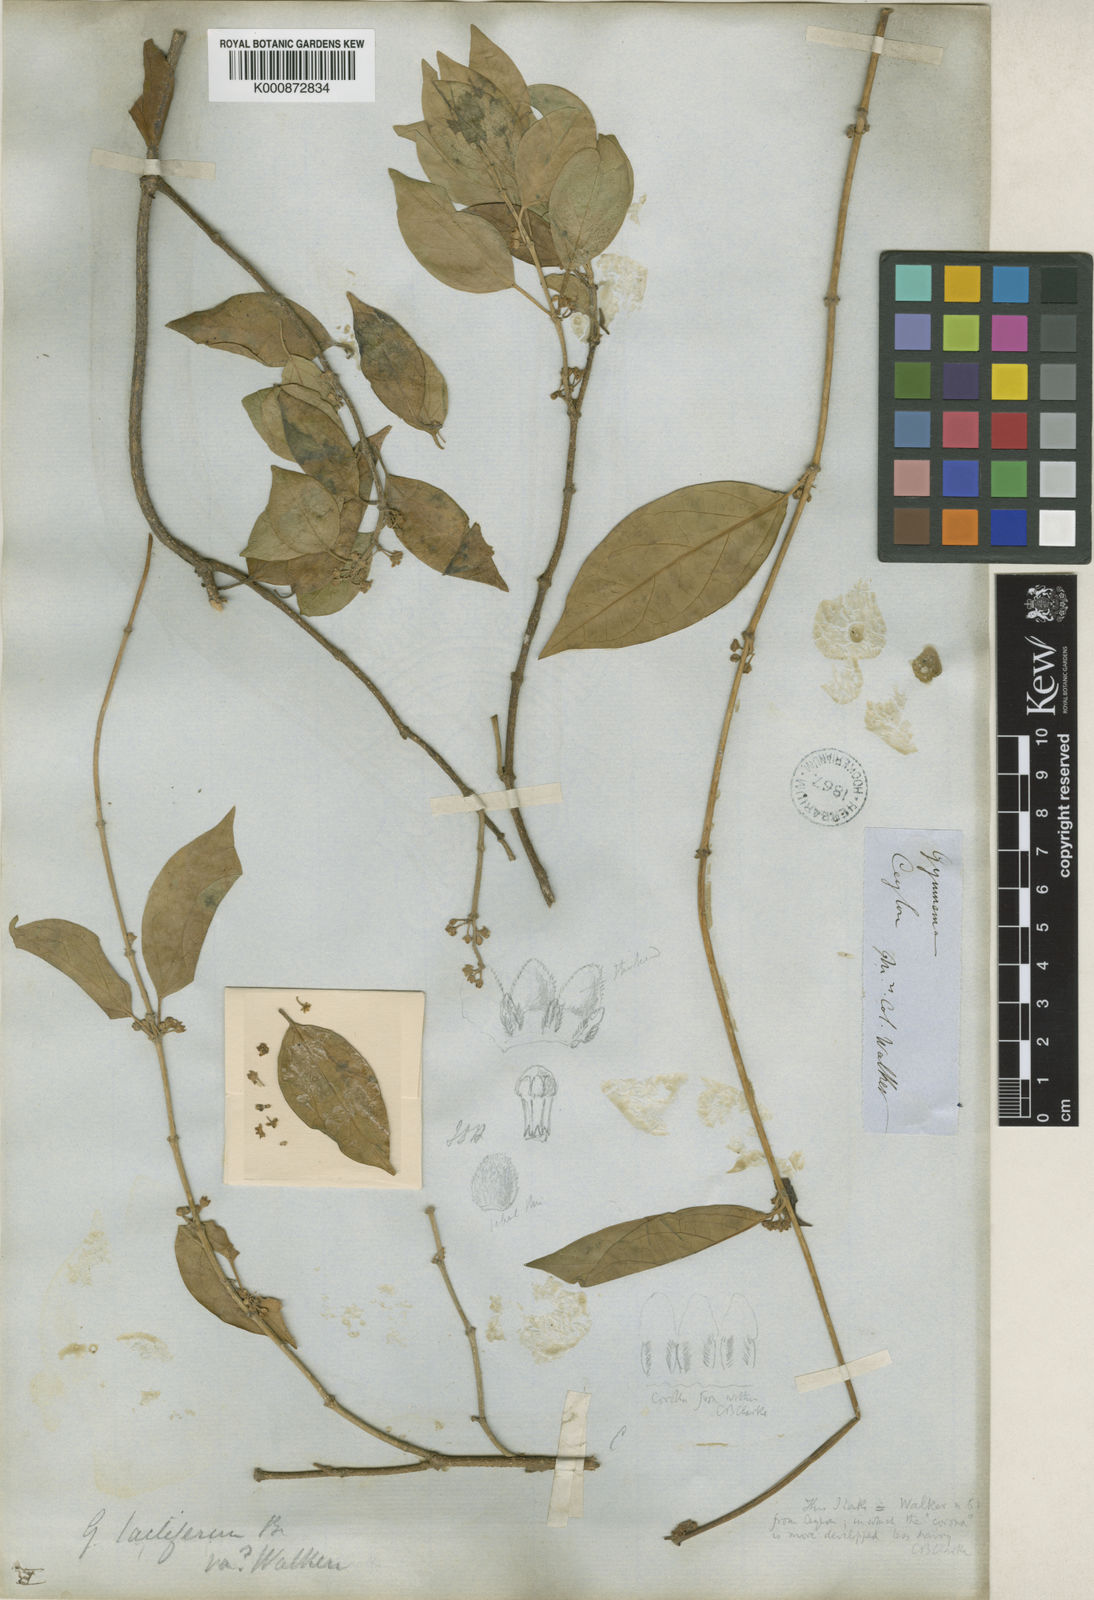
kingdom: Plantae
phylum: Tracheophyta
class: Magnoliopsida
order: Gentianales
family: Apocynaceae
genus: Gymnema
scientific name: Gymnema
